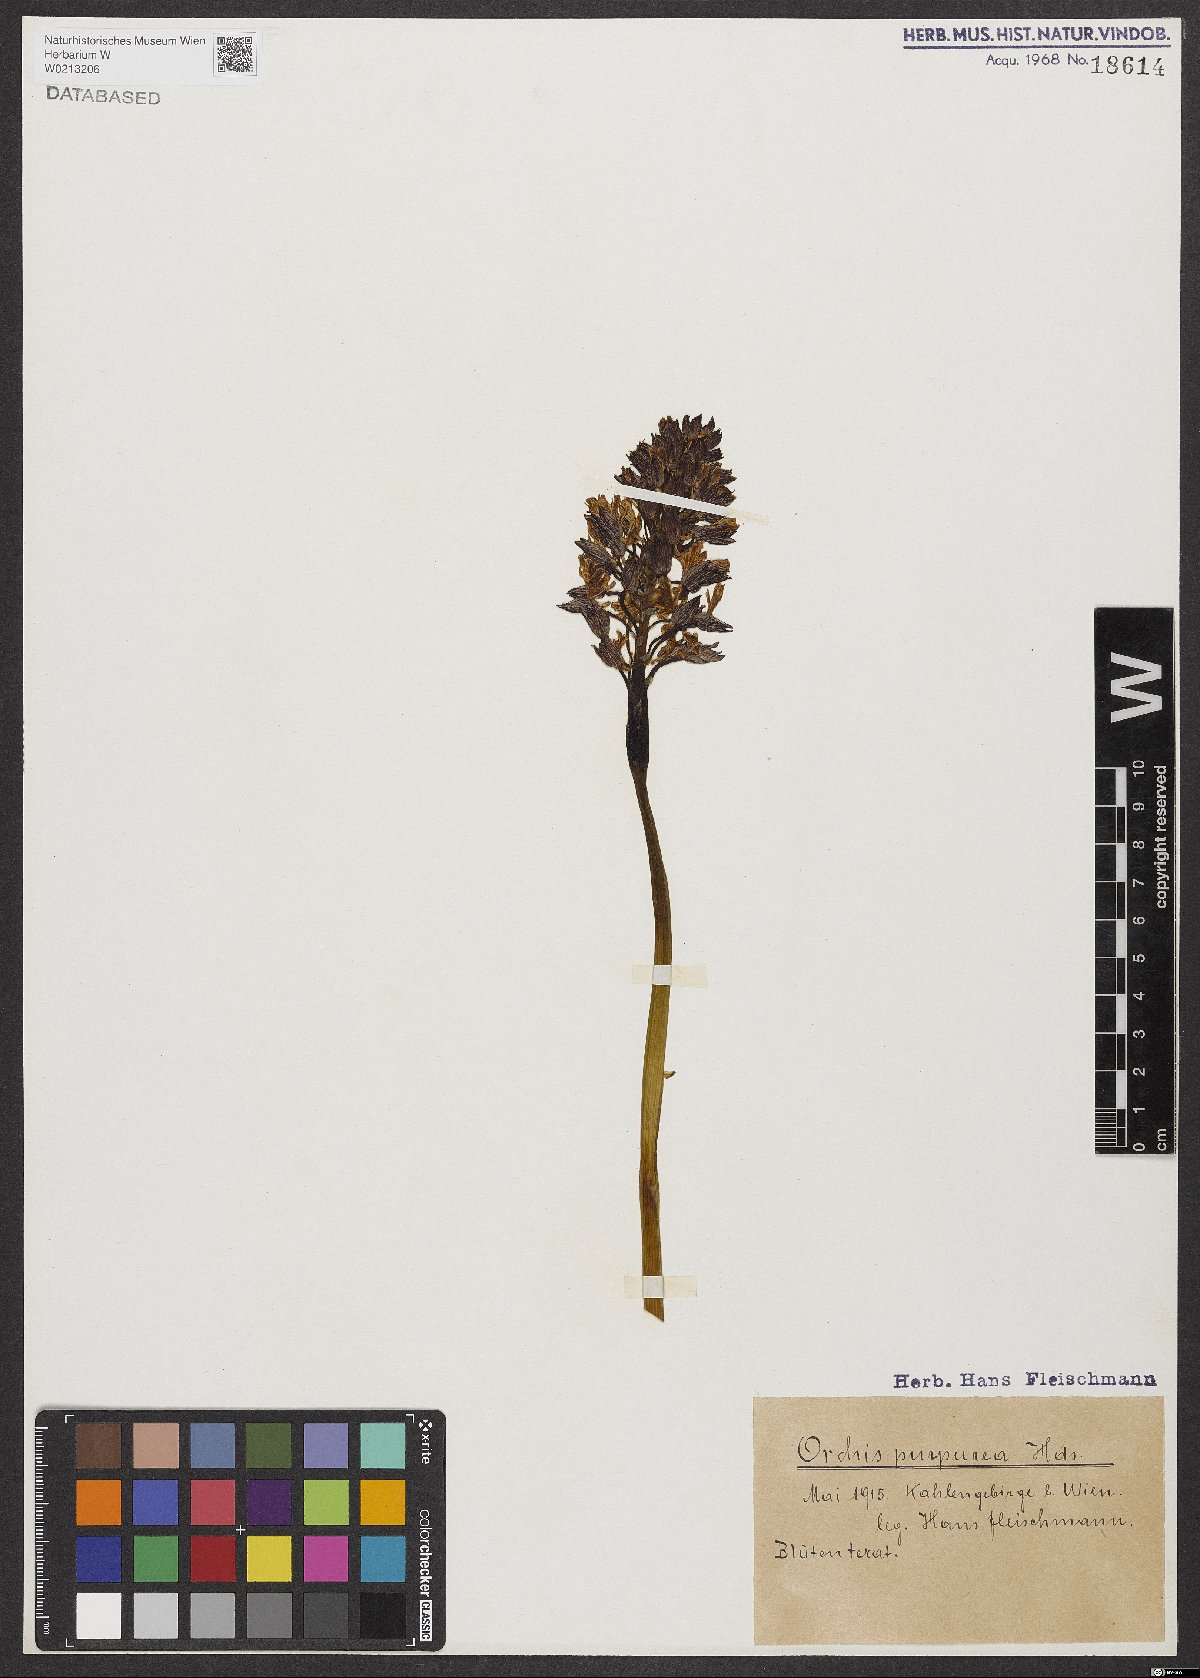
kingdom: Plantae
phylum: Tracheophyta
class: Liliopsida
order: Asparagales
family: Orchidaceae
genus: Orchis
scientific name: Orchis purpurea
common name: Lady orchid
